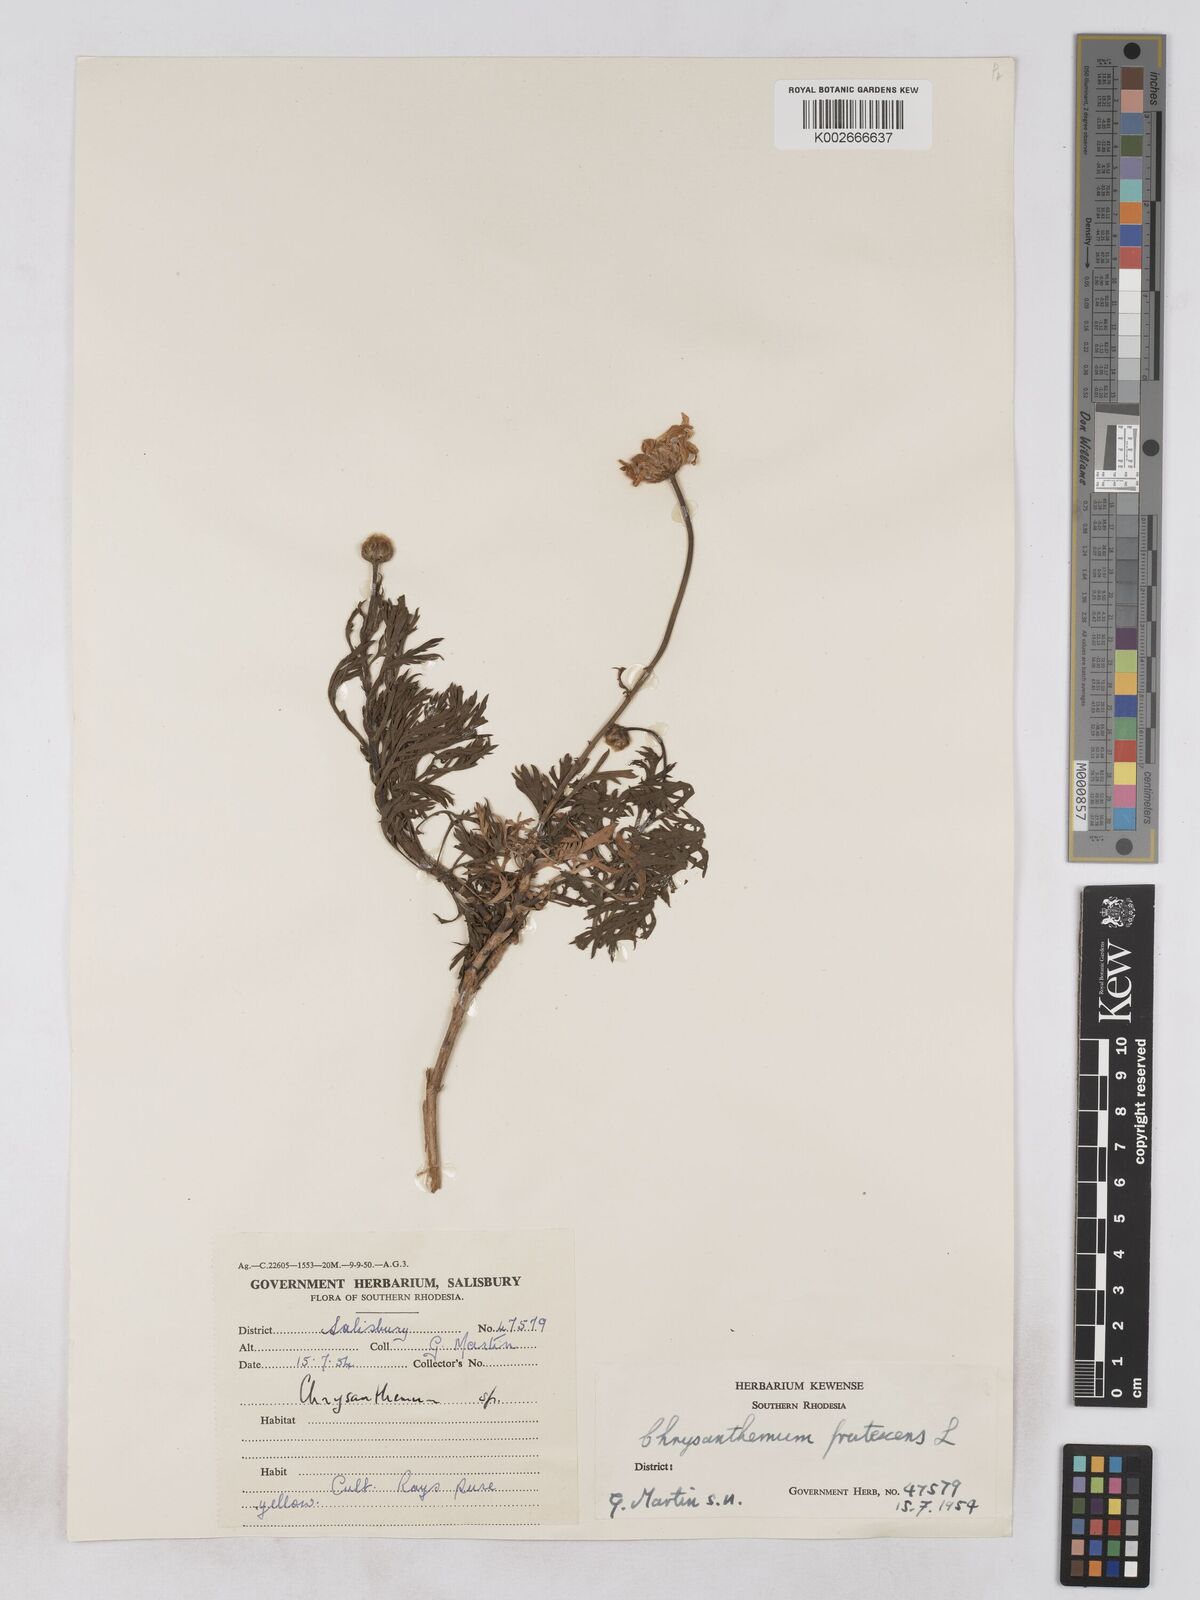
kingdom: Plantae
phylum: Tracheophyta
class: Magnoliopsida
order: Asterales
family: Asteraceae
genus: Argyranthemum
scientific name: Argyranthemum
